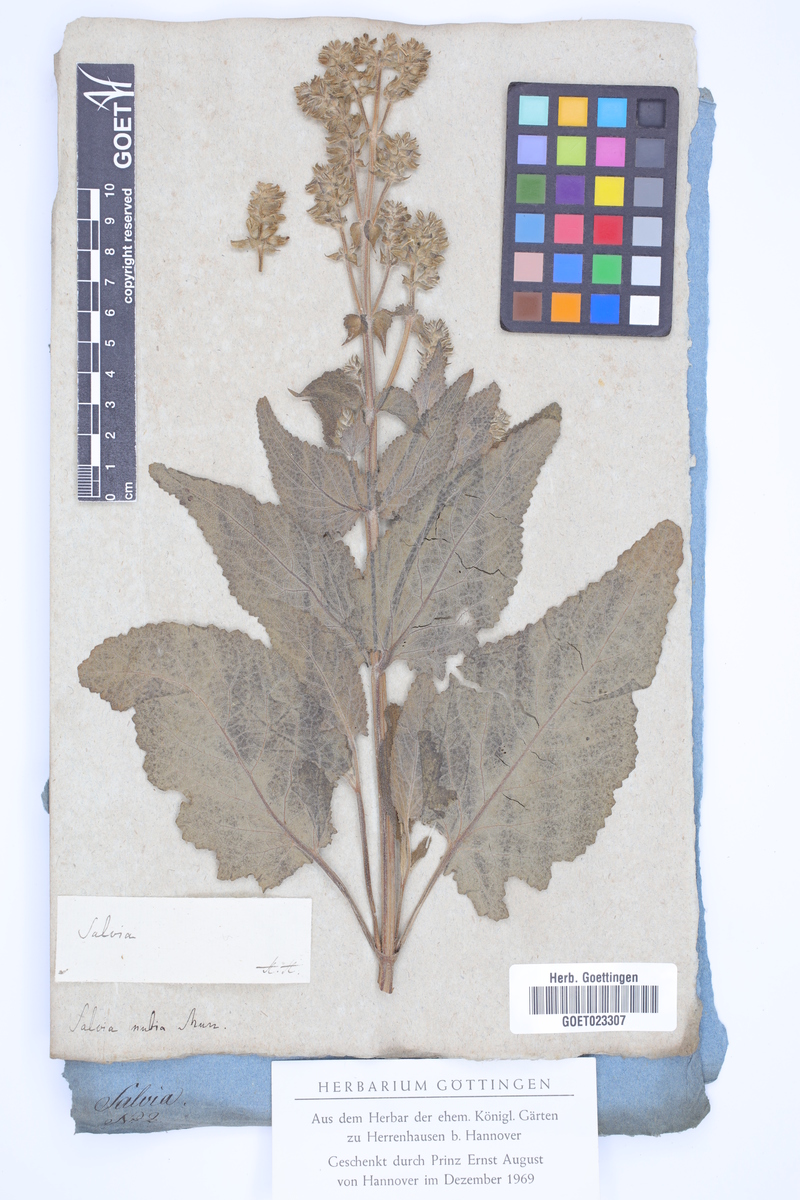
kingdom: Plantae
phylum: Tracheophyta
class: Magnoliopsida
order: Lamiales
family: Lamiaceae
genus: Salvia
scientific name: Salvia merjamie
